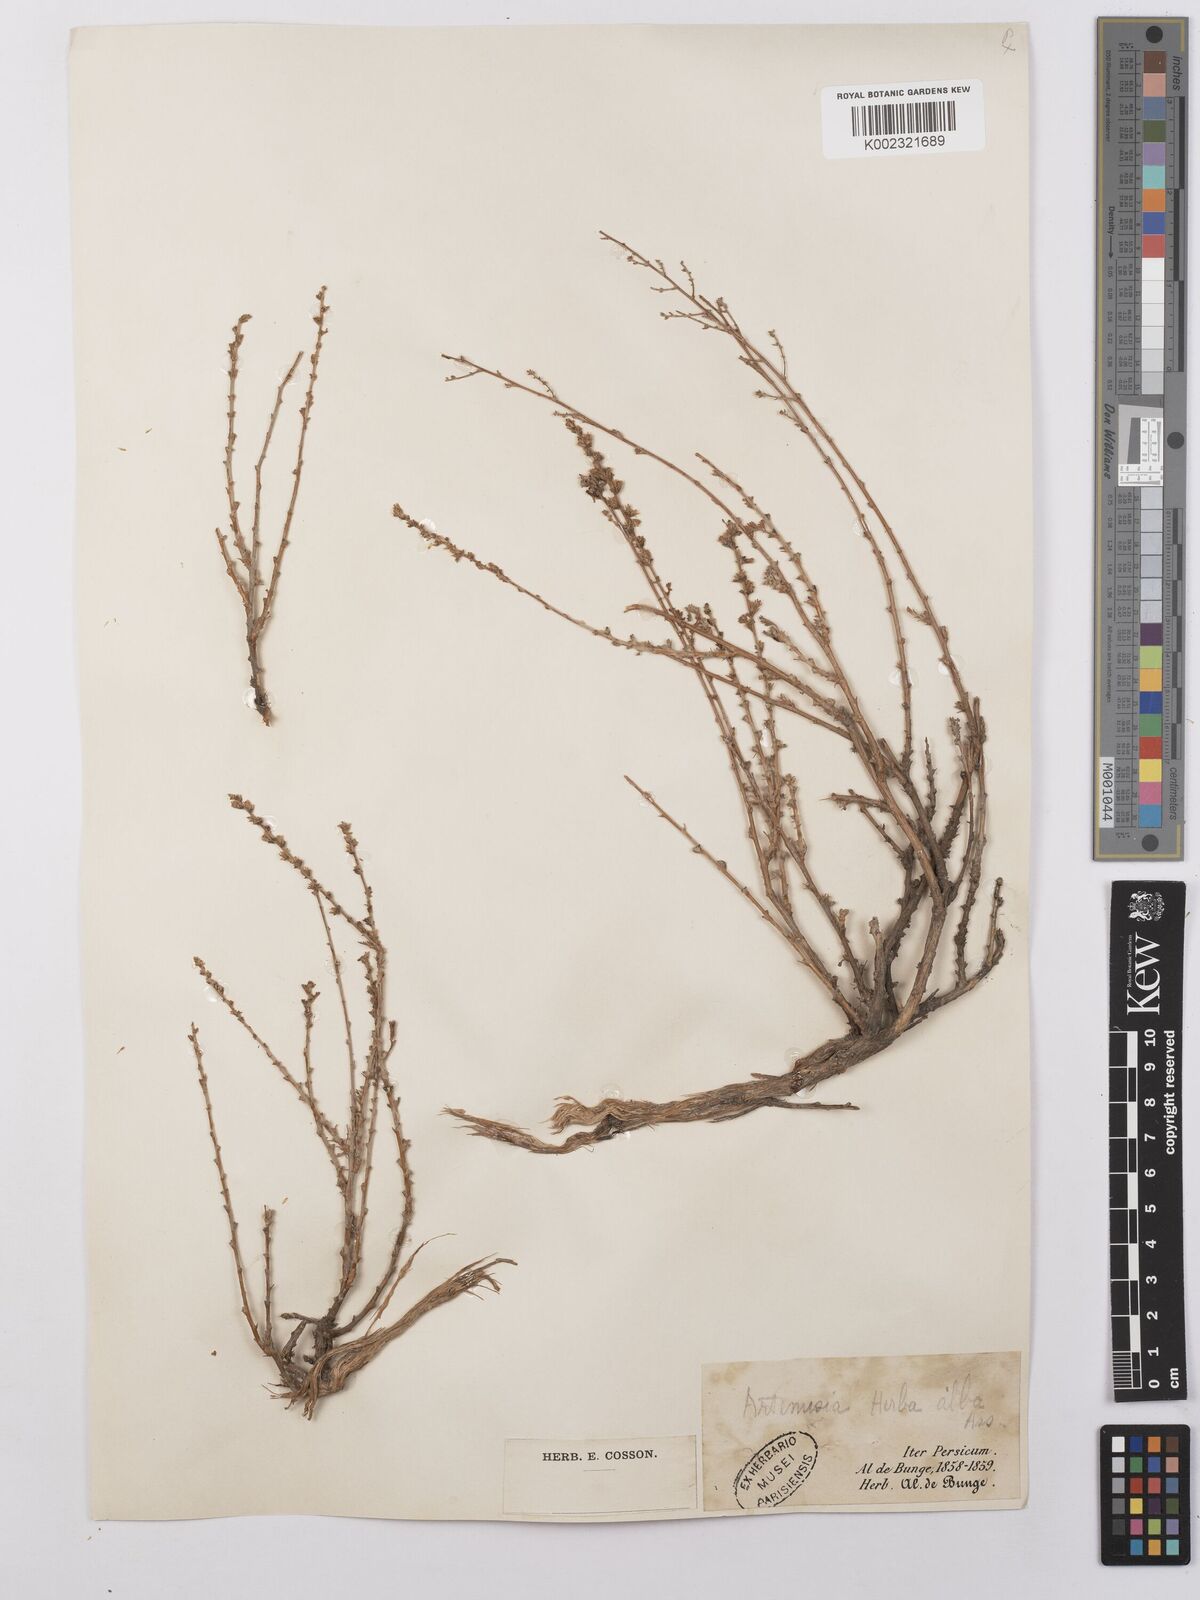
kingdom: Plantae
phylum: Tracheophyta
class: Magnoliopsida
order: Asterales
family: Asteraceae
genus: Artemisia
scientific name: Artemisia herba-alba
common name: White wormwood
